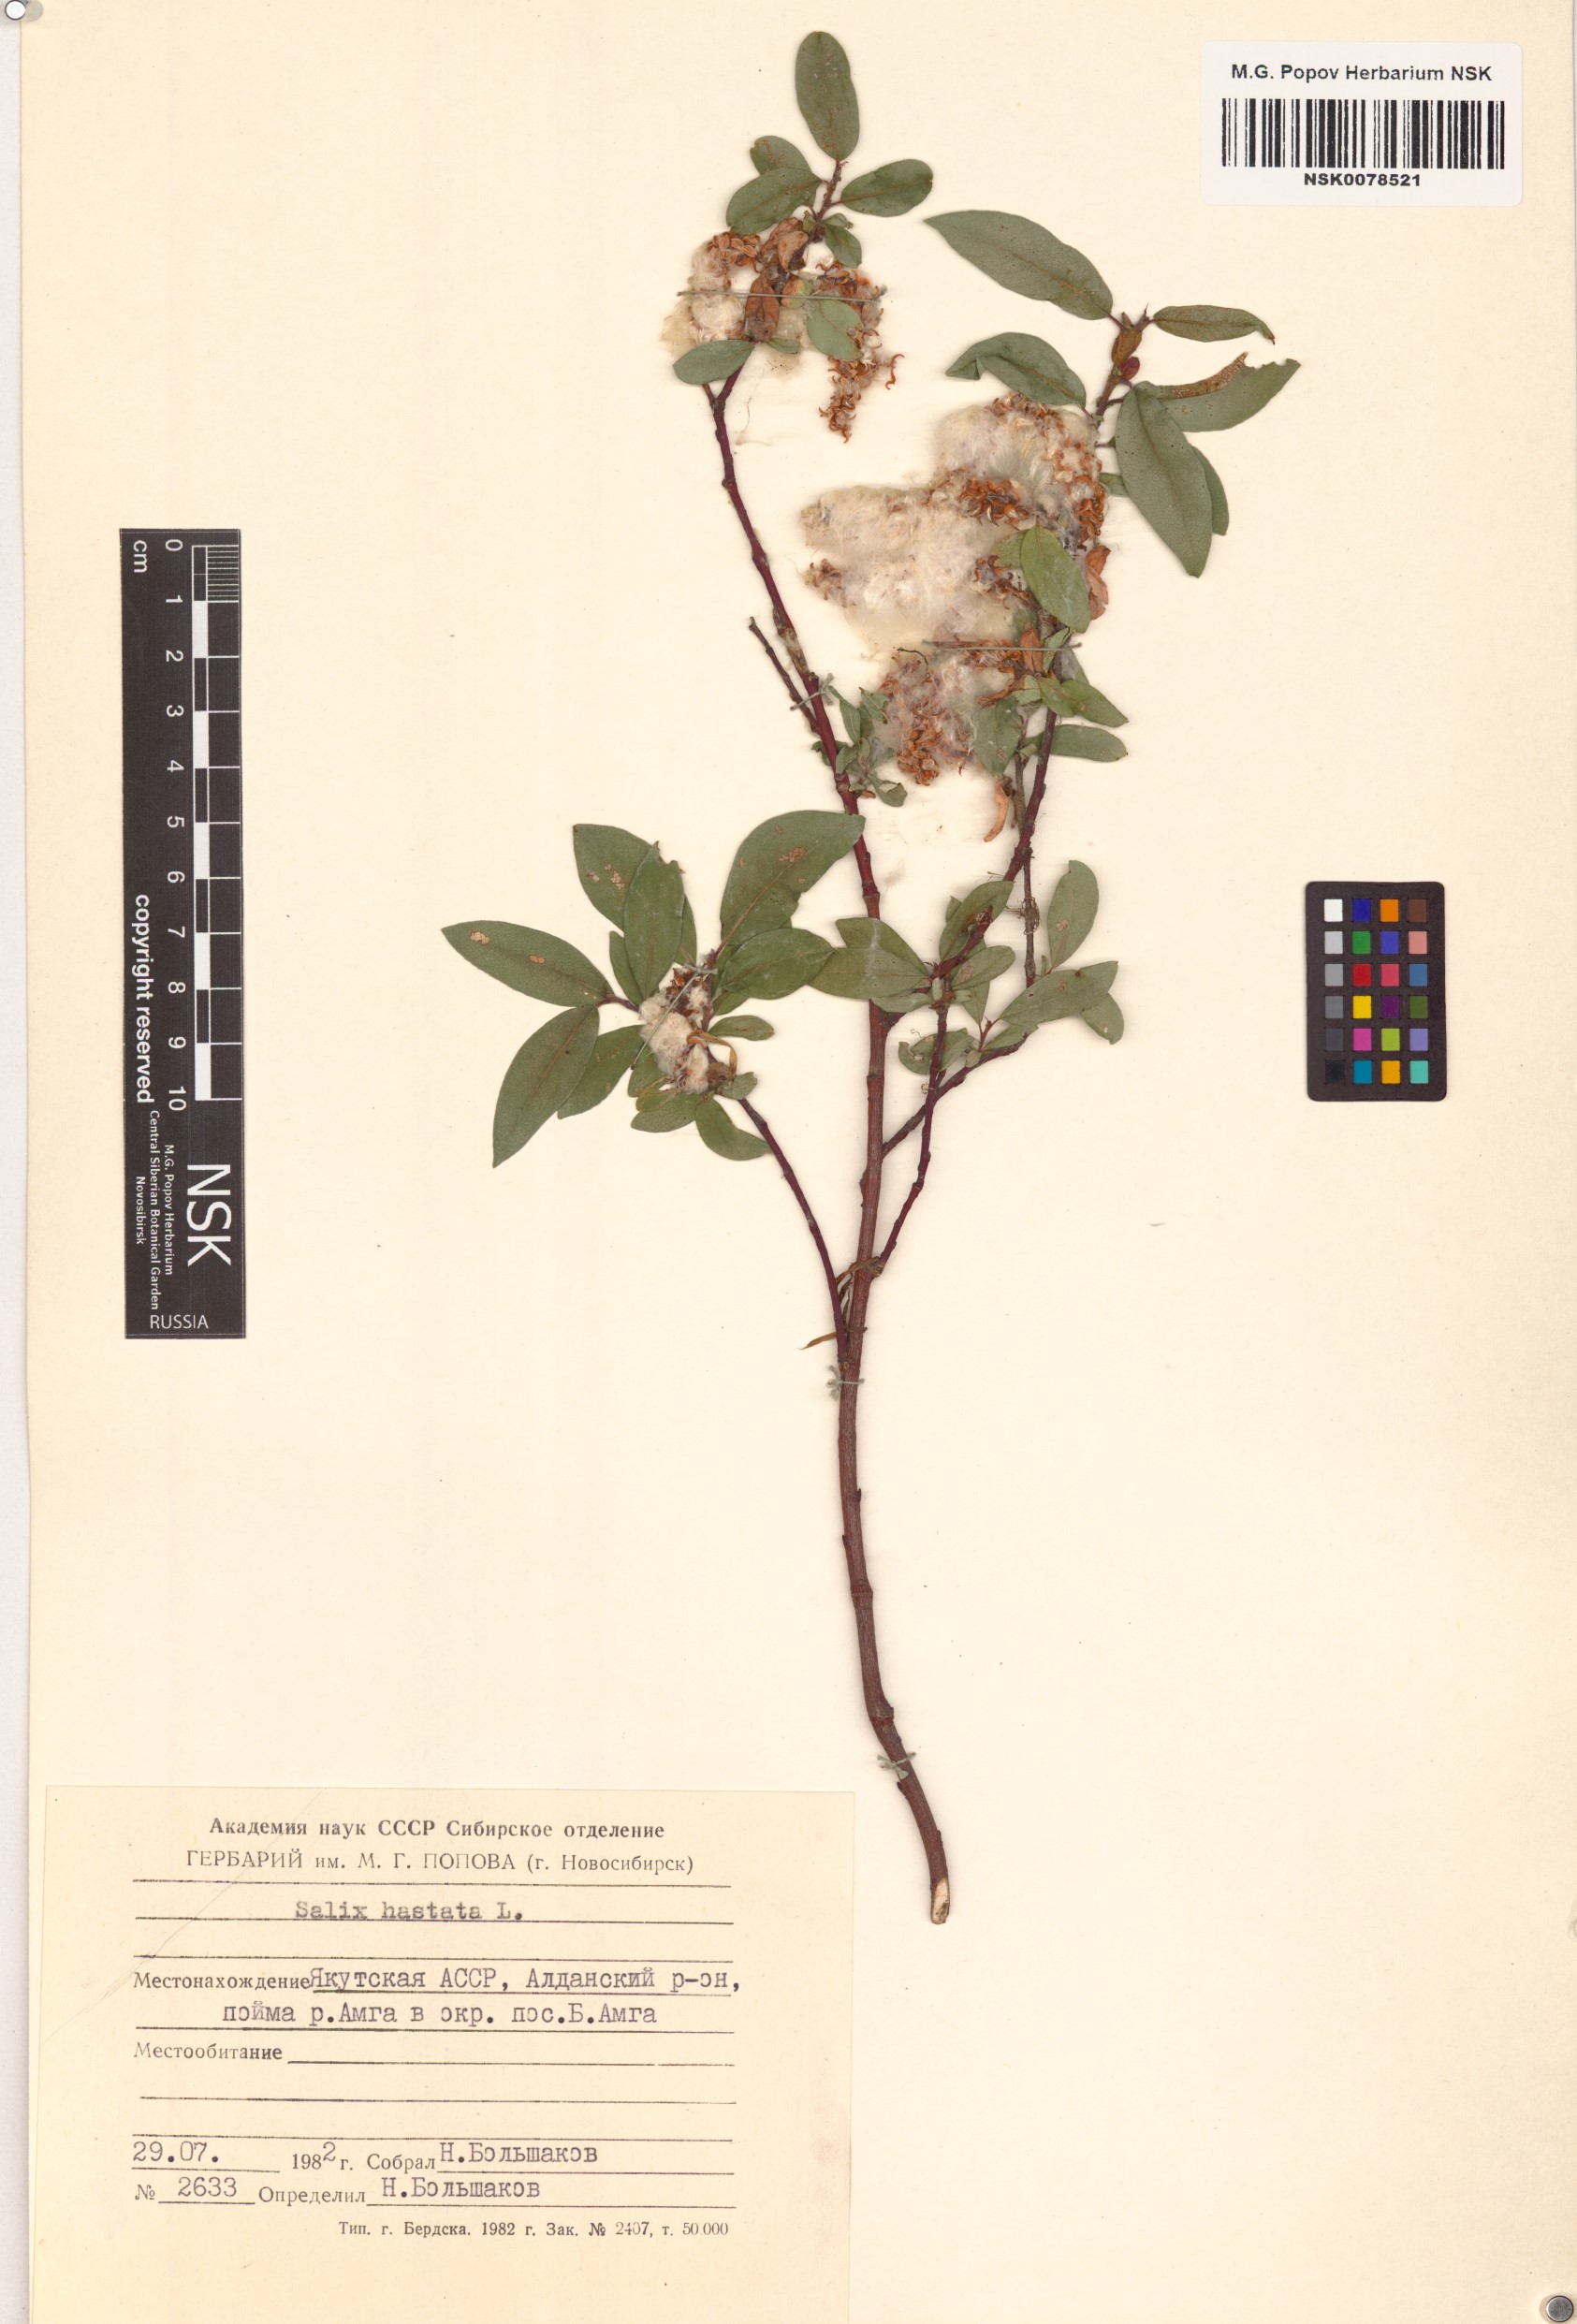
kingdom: Plantae
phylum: Tracheophyta
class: Magnoliopsida
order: Malpighiales
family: Salicaceae
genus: Salix
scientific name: Salix hastata
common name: Halberd willow
